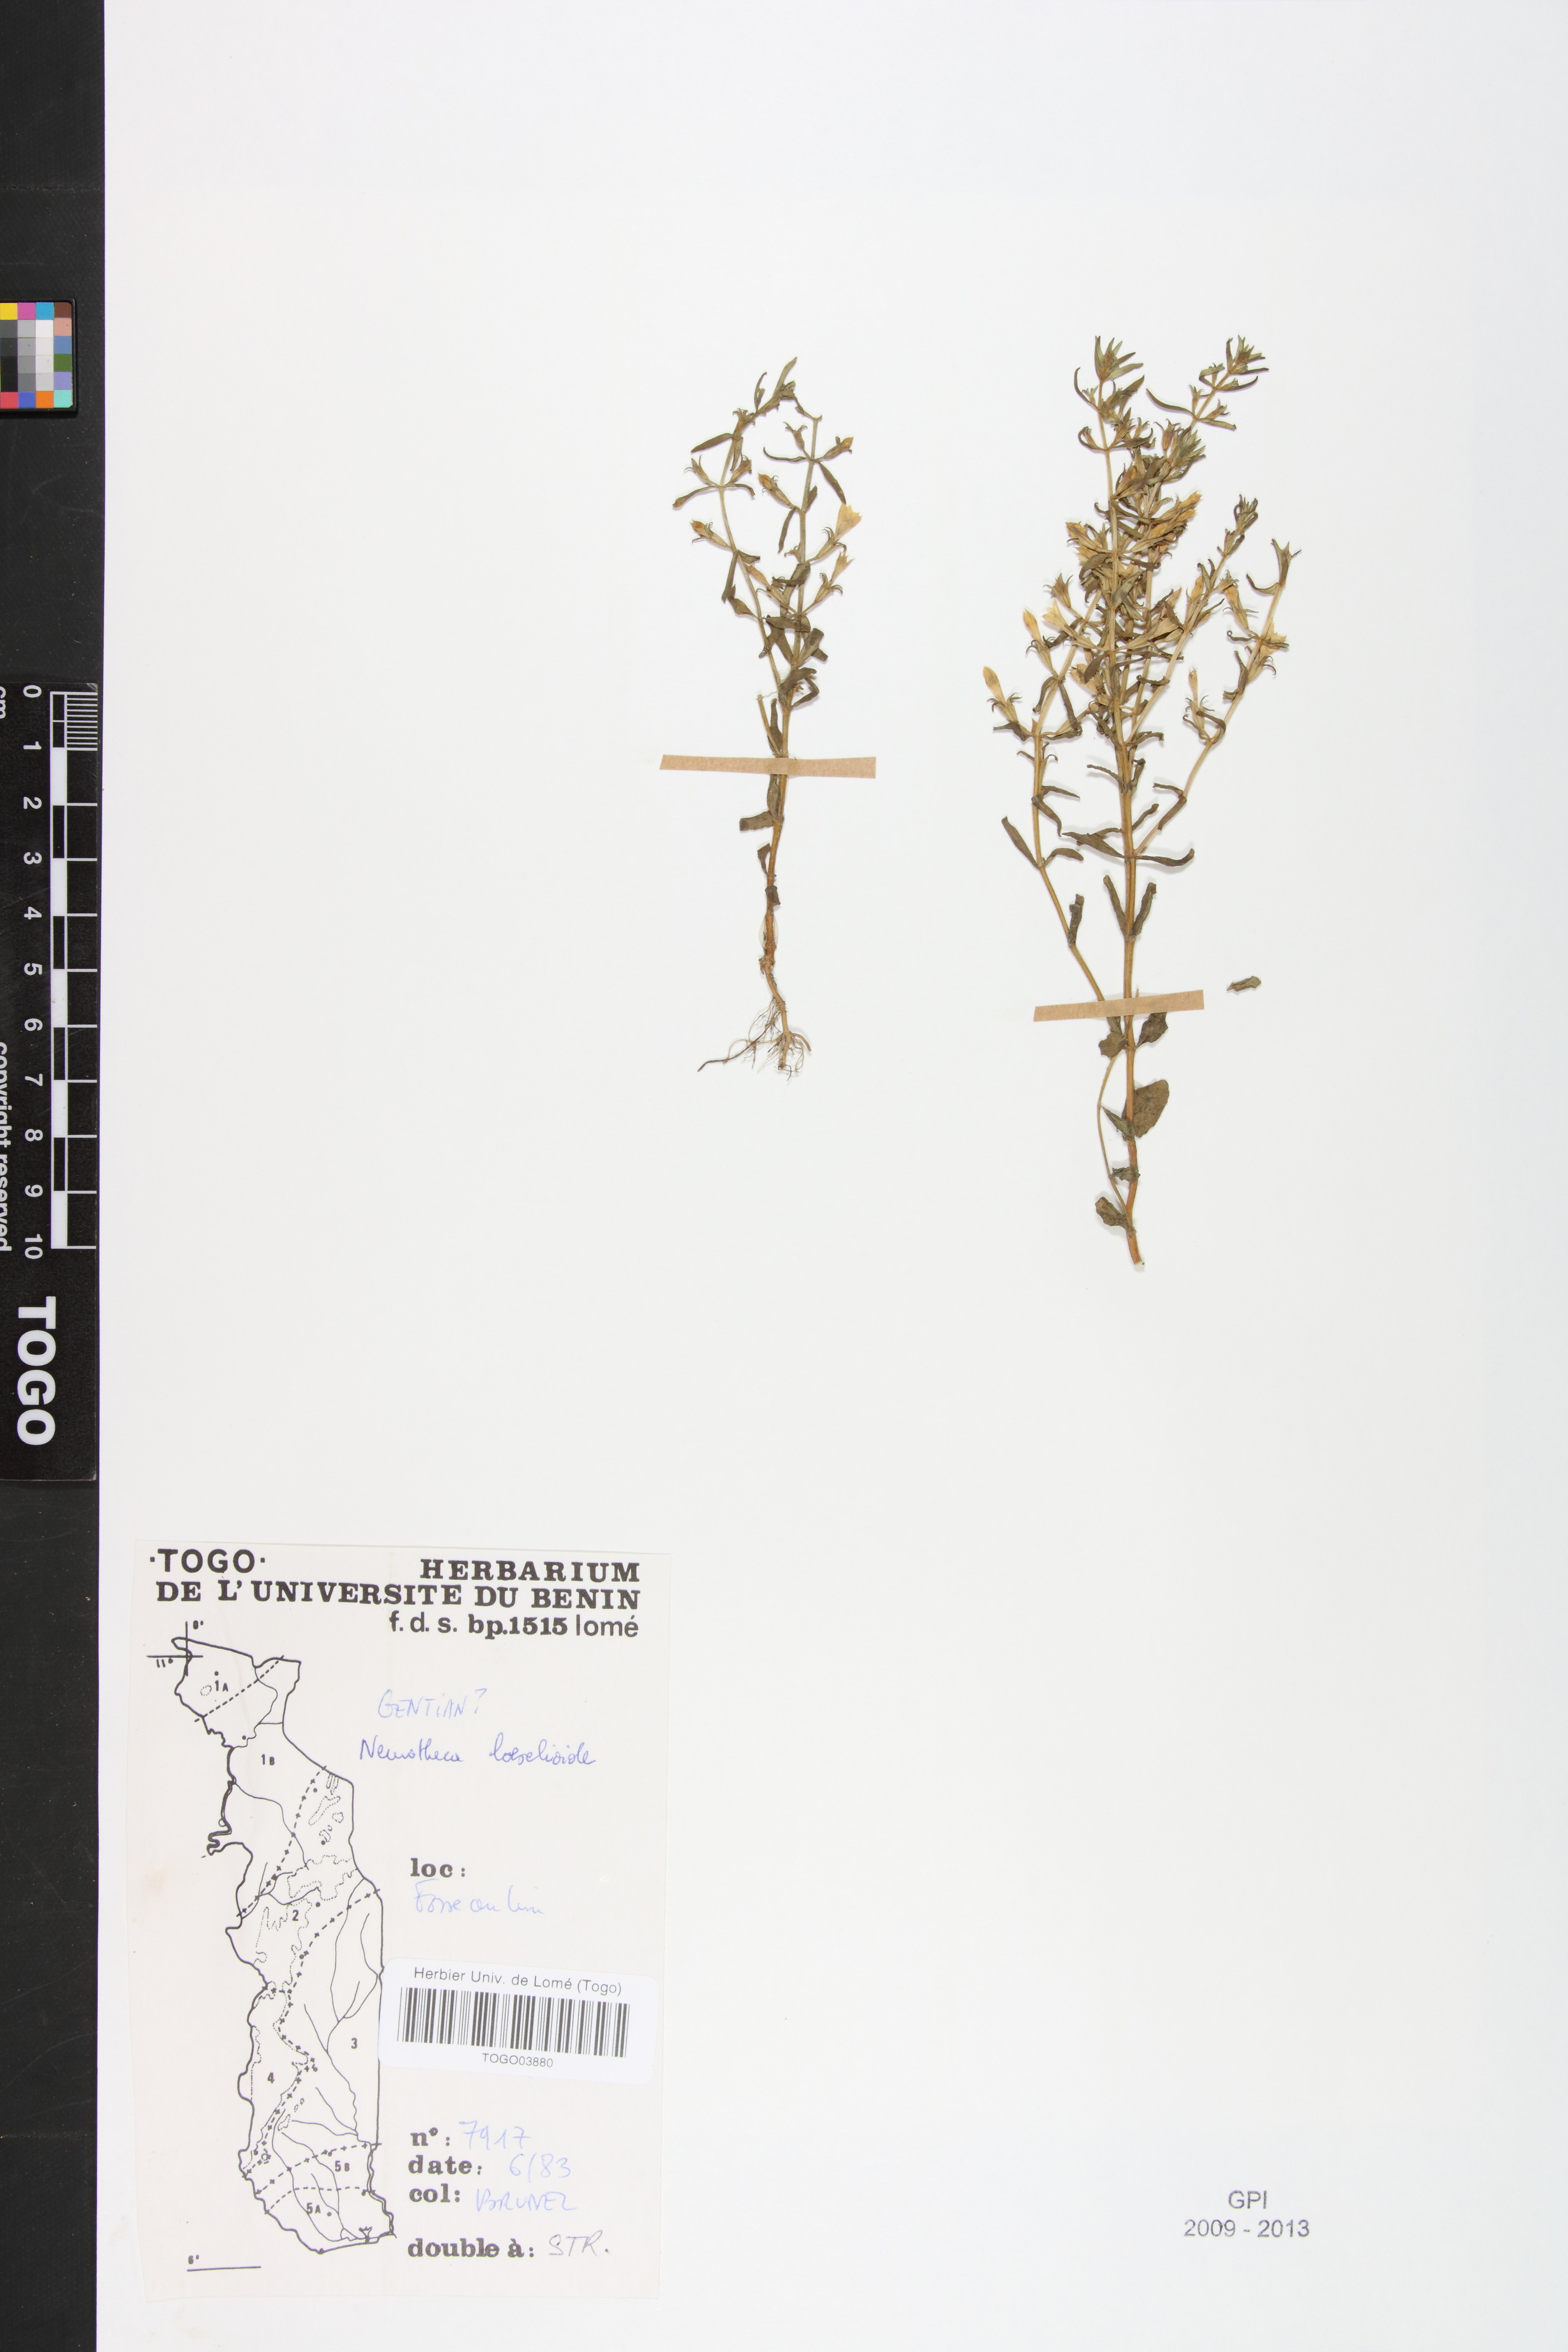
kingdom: Plantae
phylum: Tracheophyta
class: Magnoliopsida
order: Gentianales
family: Gentianaceae
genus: Neurotheca
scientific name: Neurotheca loeselioides
